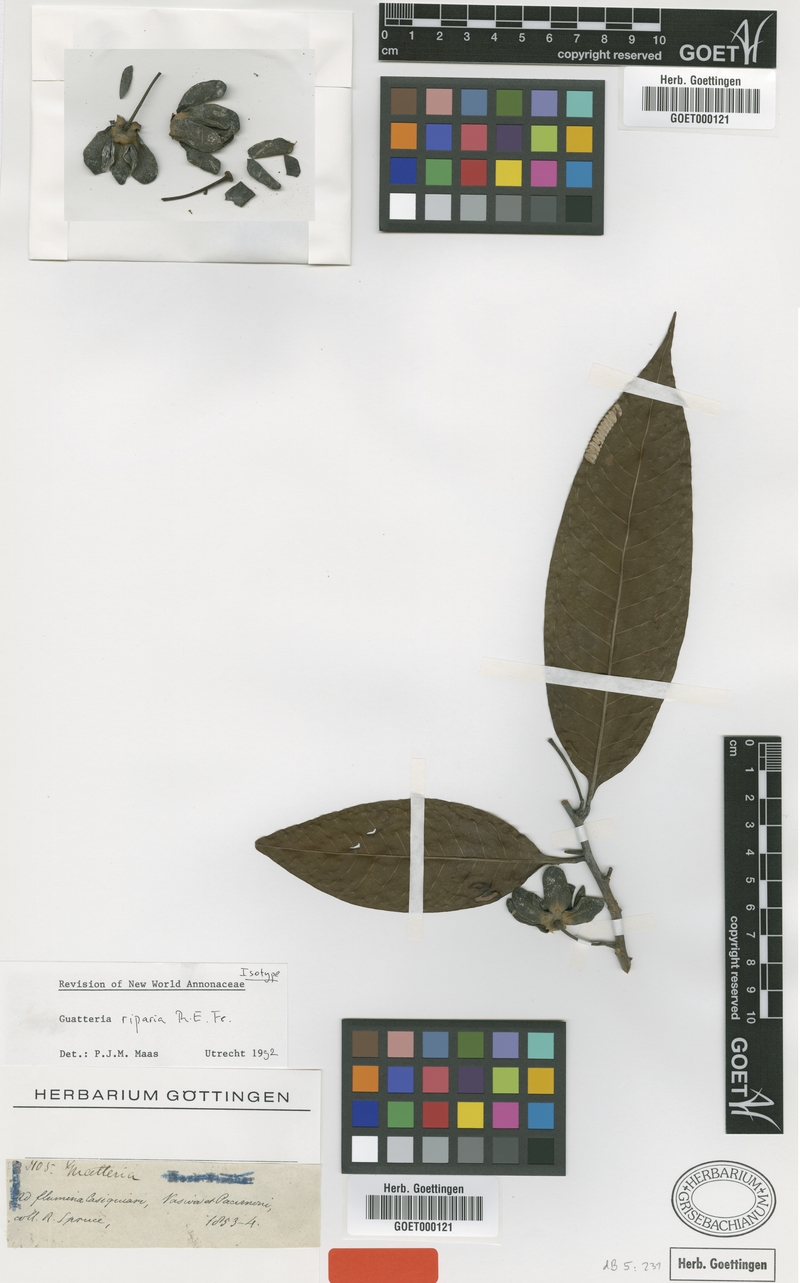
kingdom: Plantae
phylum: Tracheophyta
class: Magnoliopsida
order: Magnoliales
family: Annonaceae
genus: Guatteria
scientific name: Guatteria riparia
